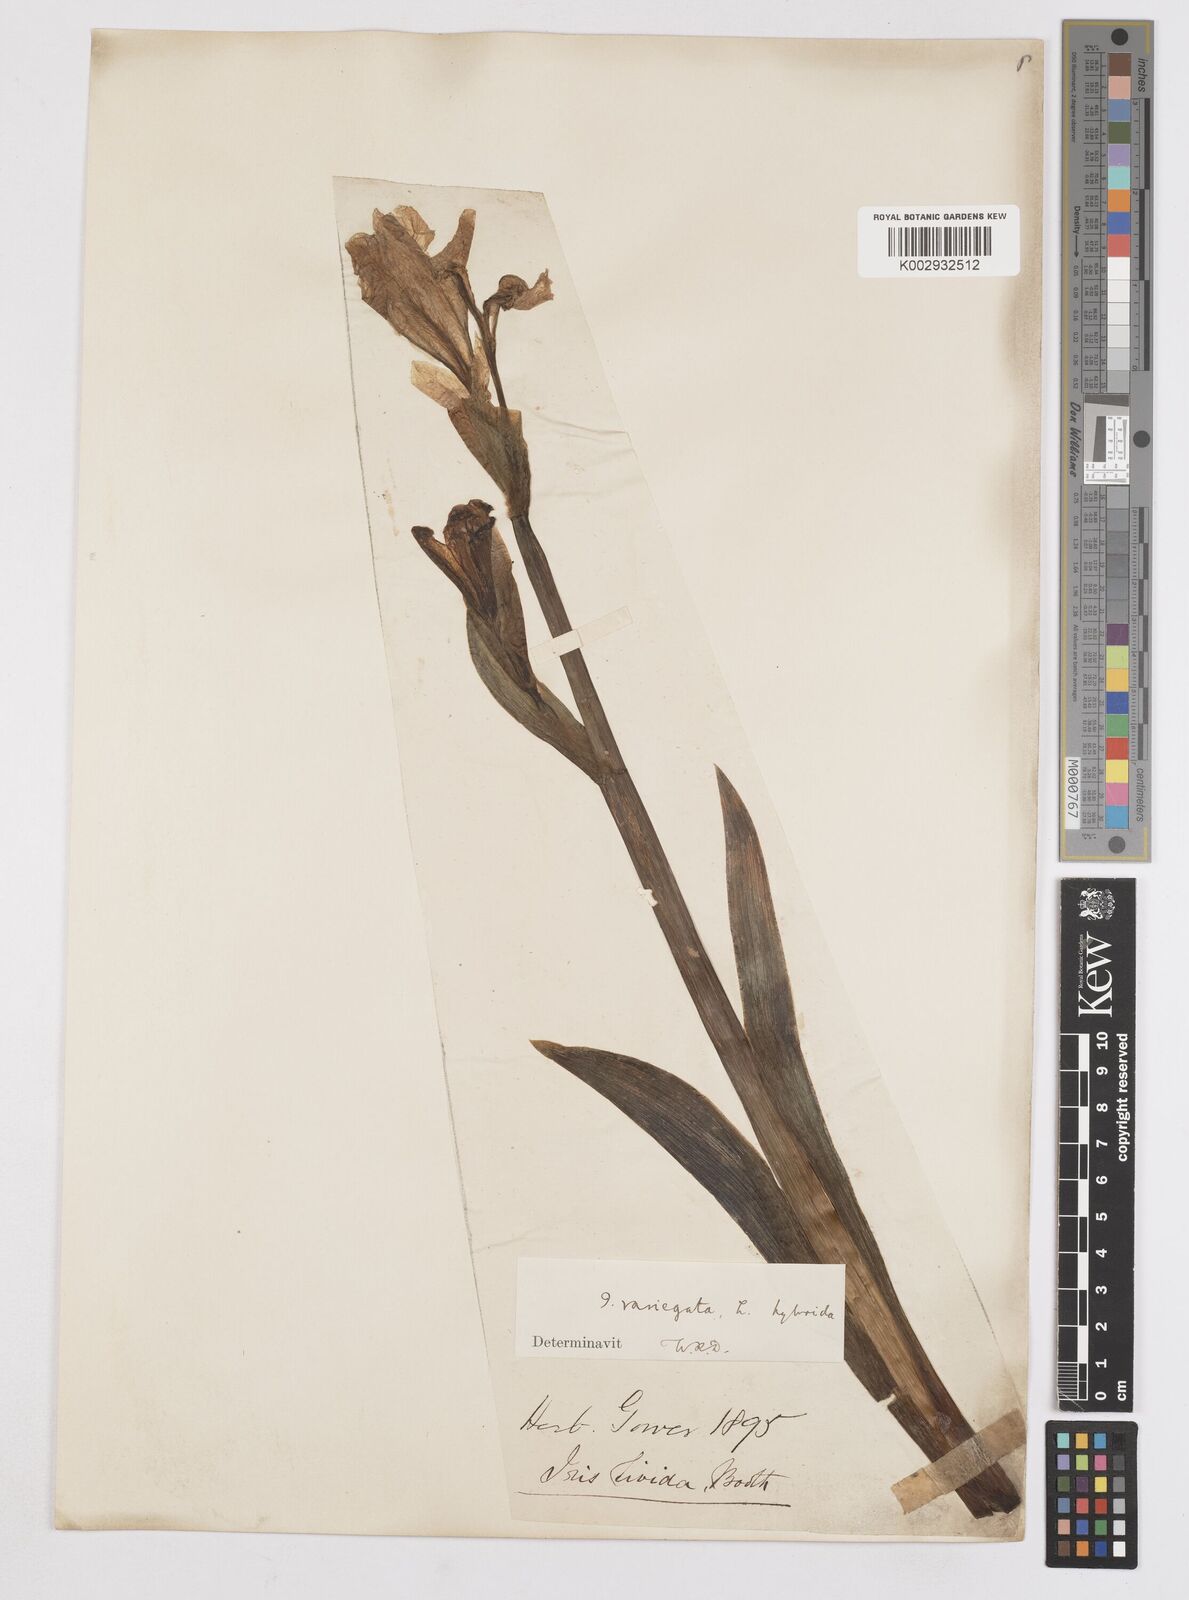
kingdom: Plantae
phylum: Tracheophyta
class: Liliopsida
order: Asparagales
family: Iridaceae
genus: Iris
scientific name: Iris reichenbachii
